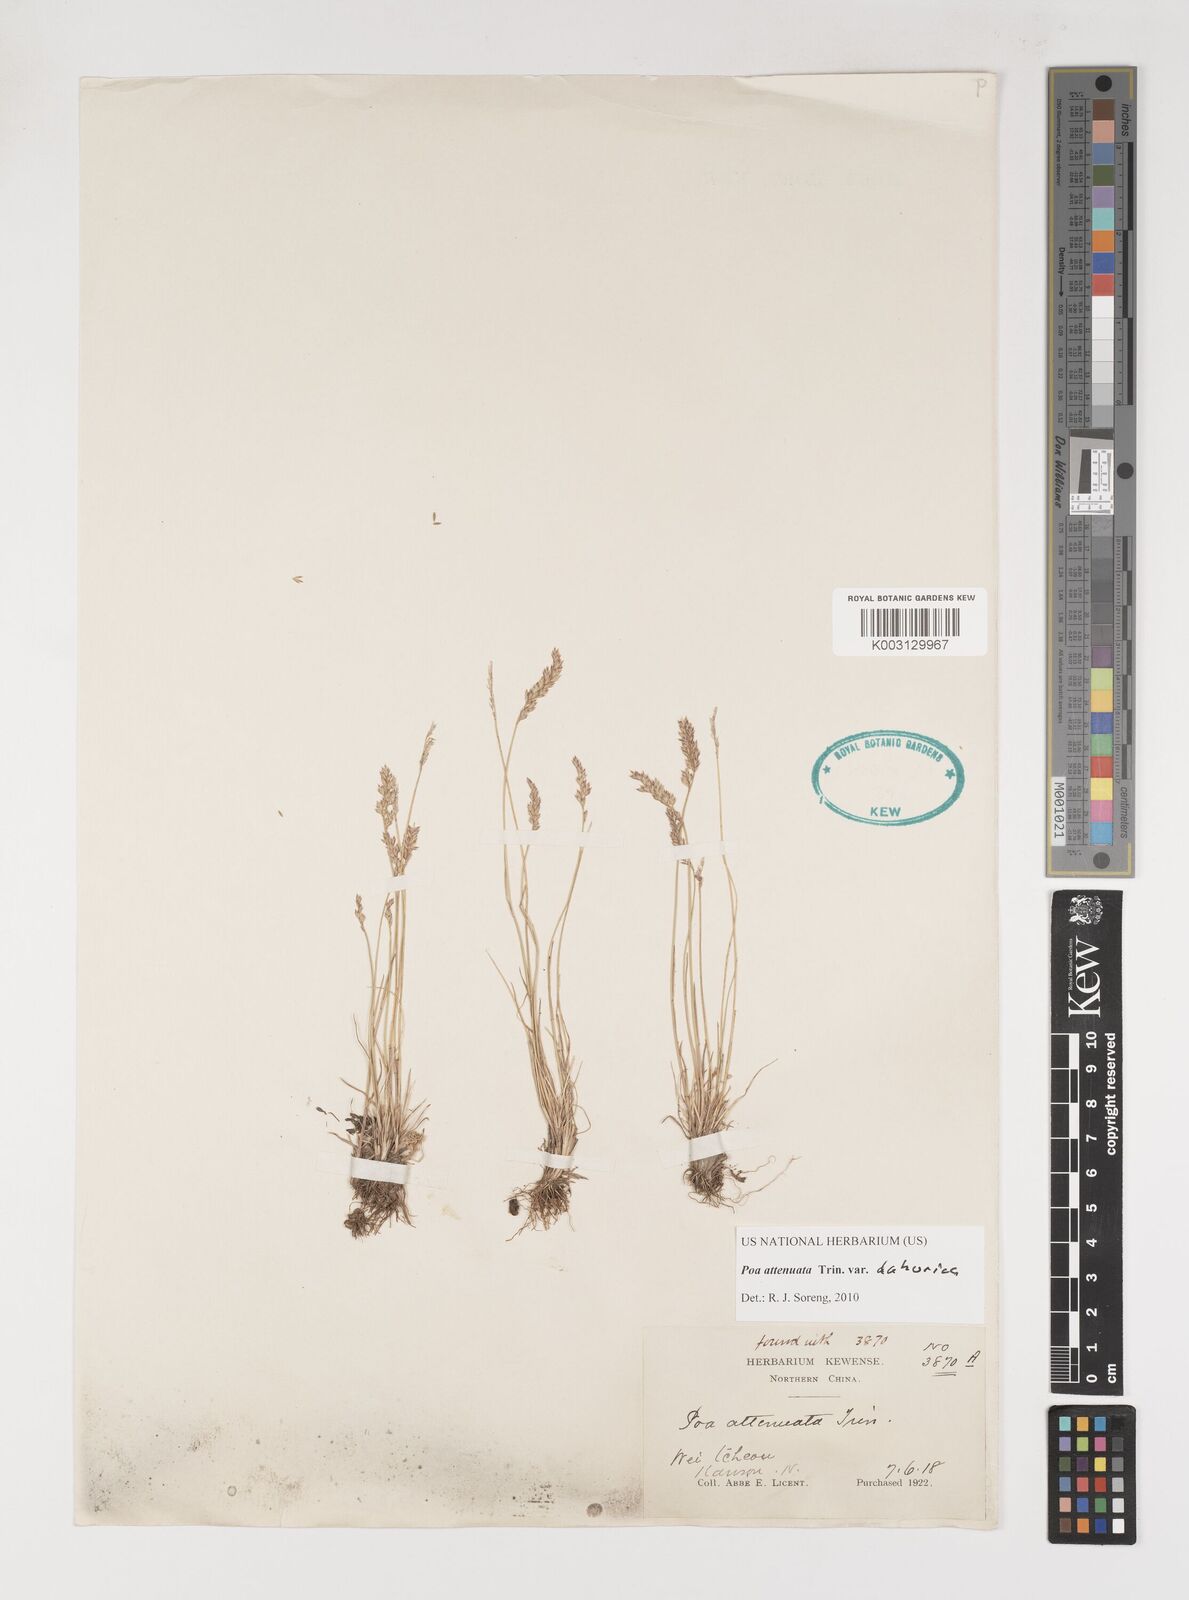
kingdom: Plantae
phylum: Tracheophyta
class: Liliopsida
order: Poales
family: Poaceae
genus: Poa
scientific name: Poa attenuata
